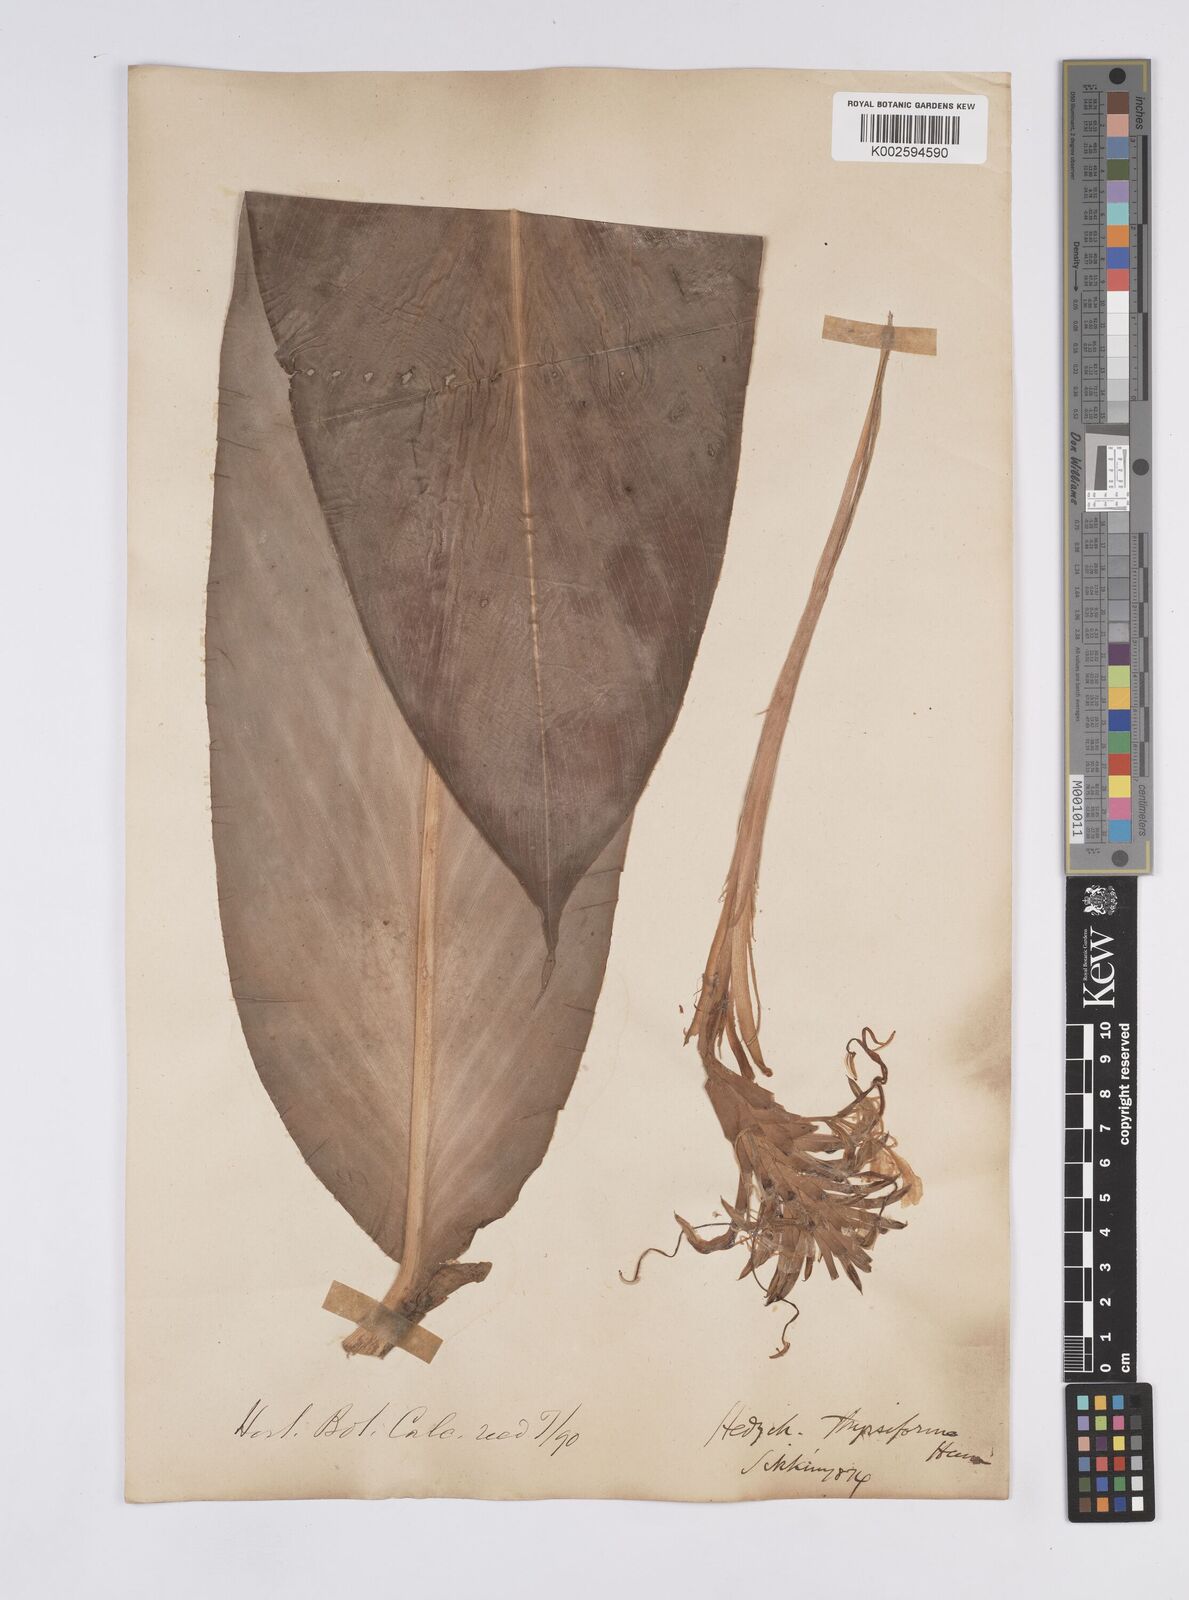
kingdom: Plantae
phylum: Tracheophyta
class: Liliopsida
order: Zingiberales
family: Zingiberaceae
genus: Hedychium
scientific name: Hedychium thyrsiforme
